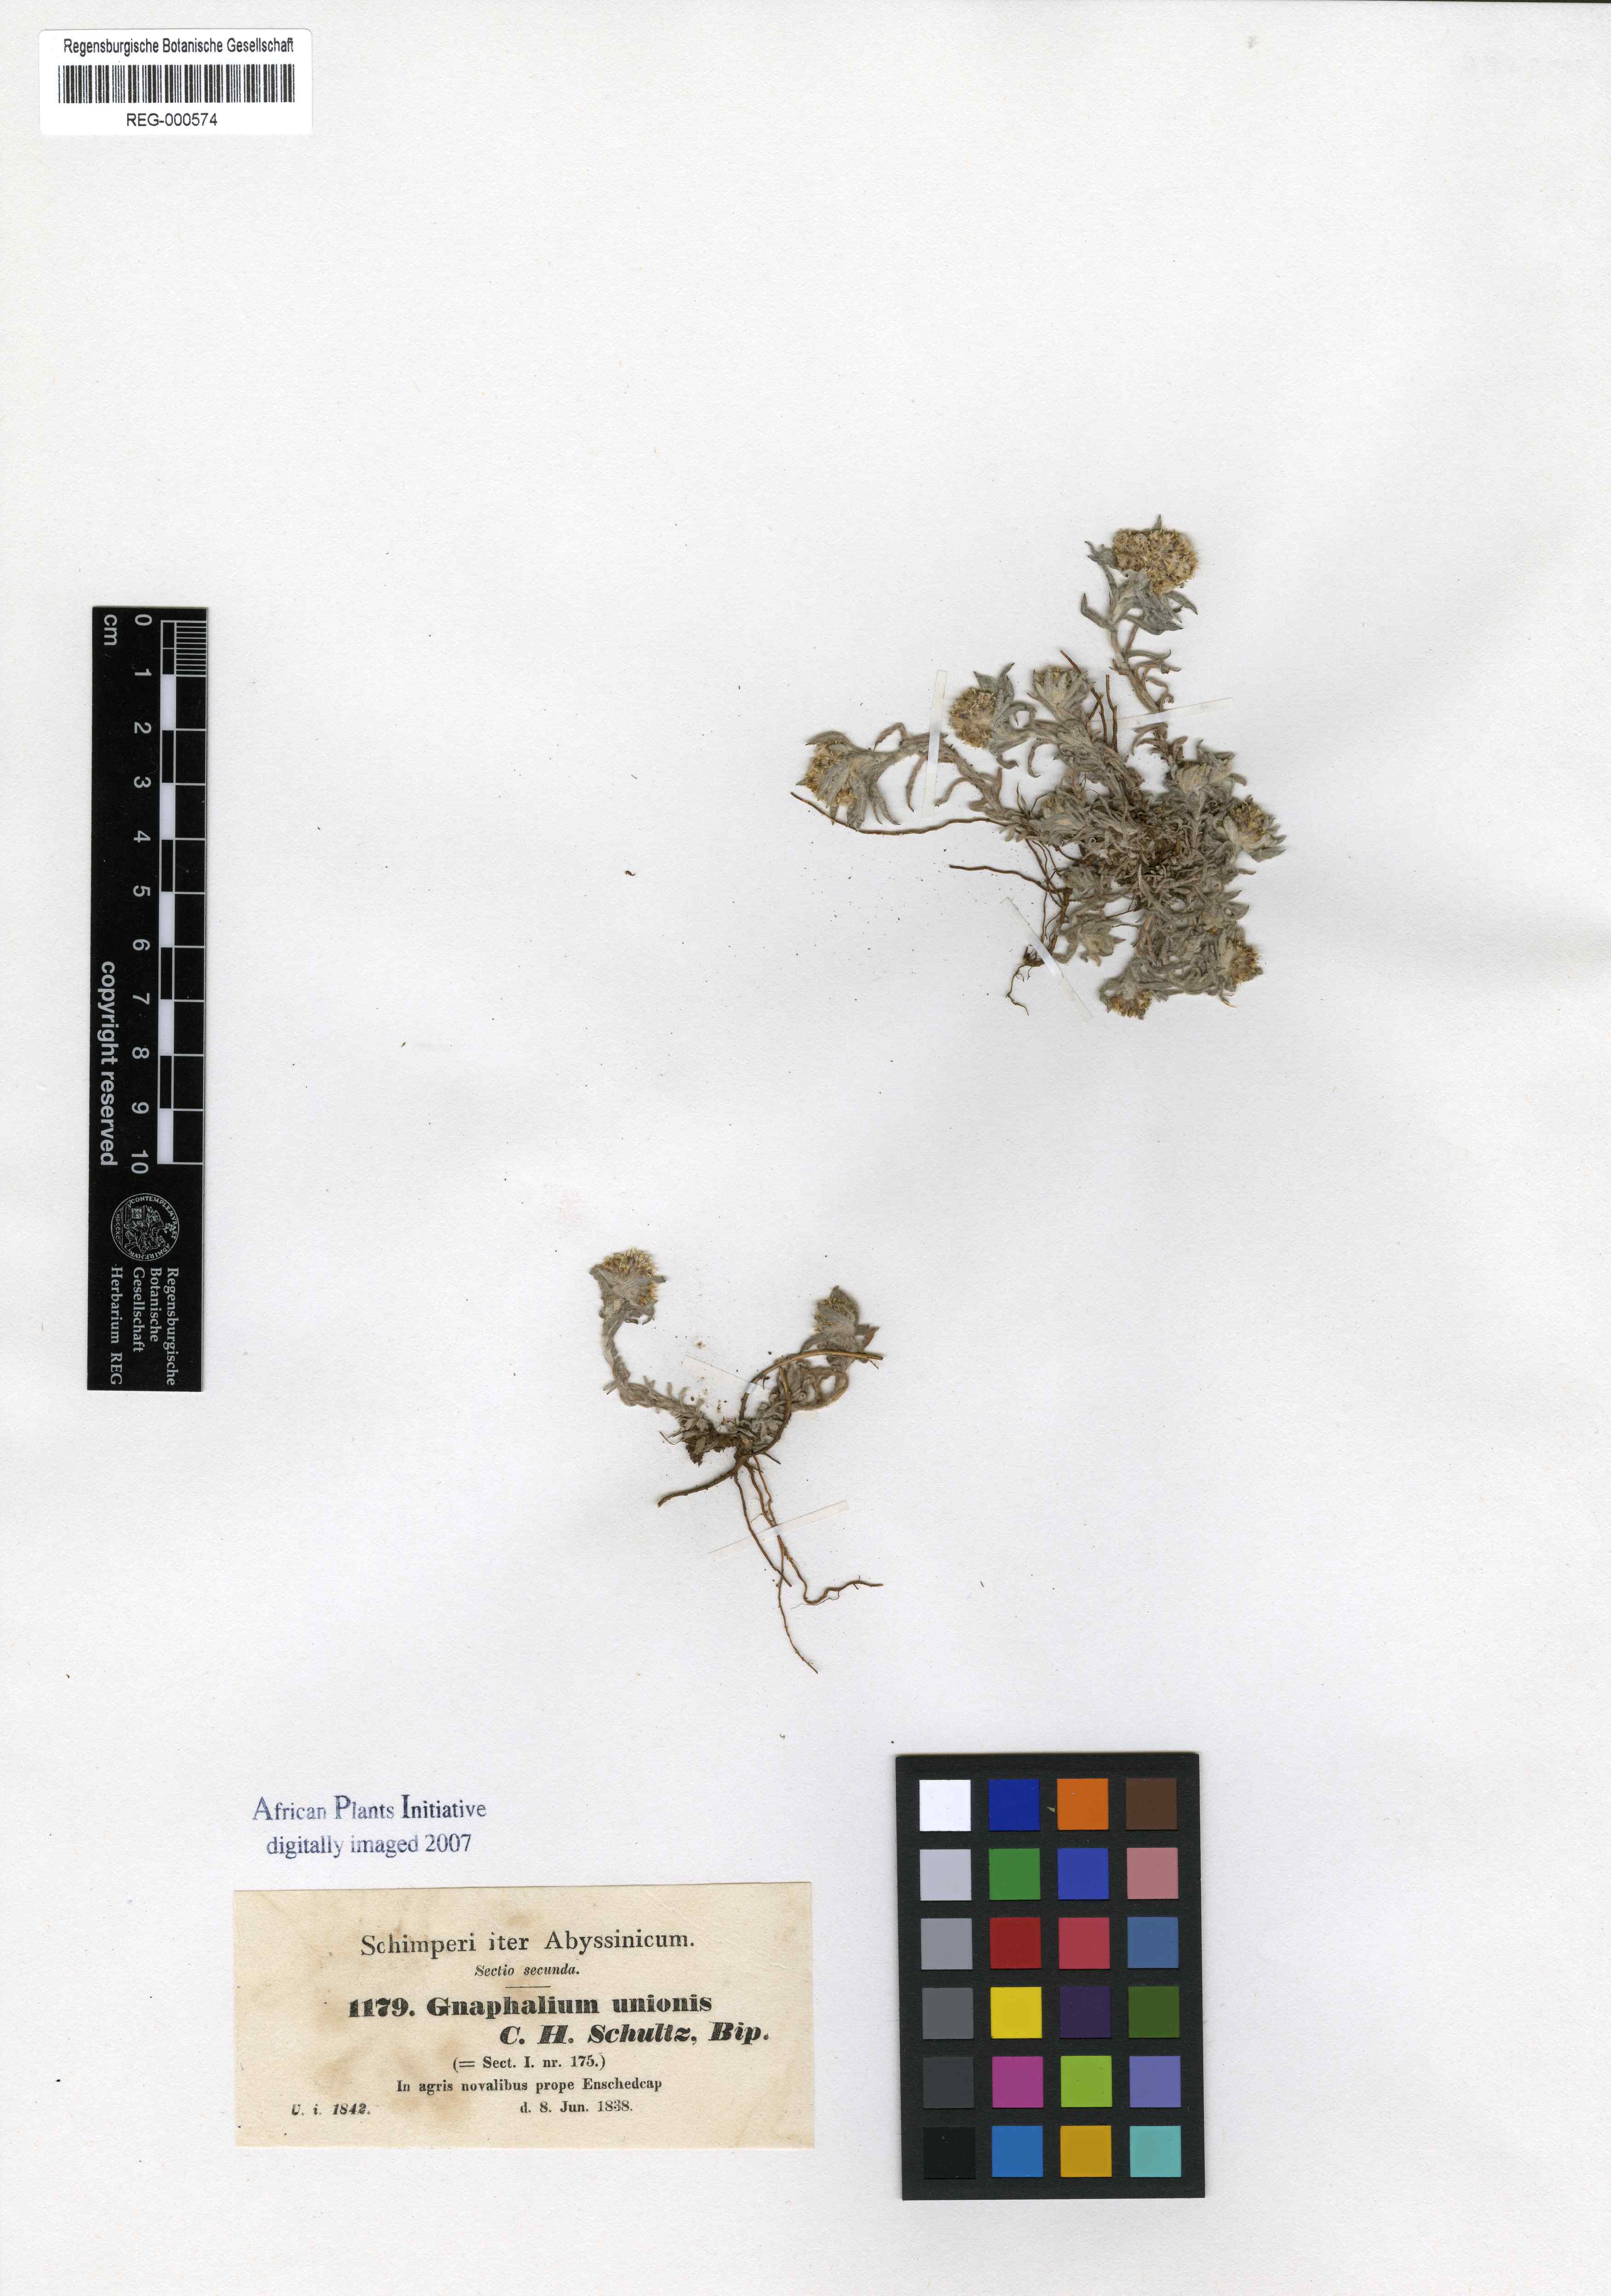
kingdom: Plantae
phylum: Tracheophyta
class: Magnoliopsida
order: Asterales
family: Asteraceae
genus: Gnaphalium
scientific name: Gnaphalium unionis
